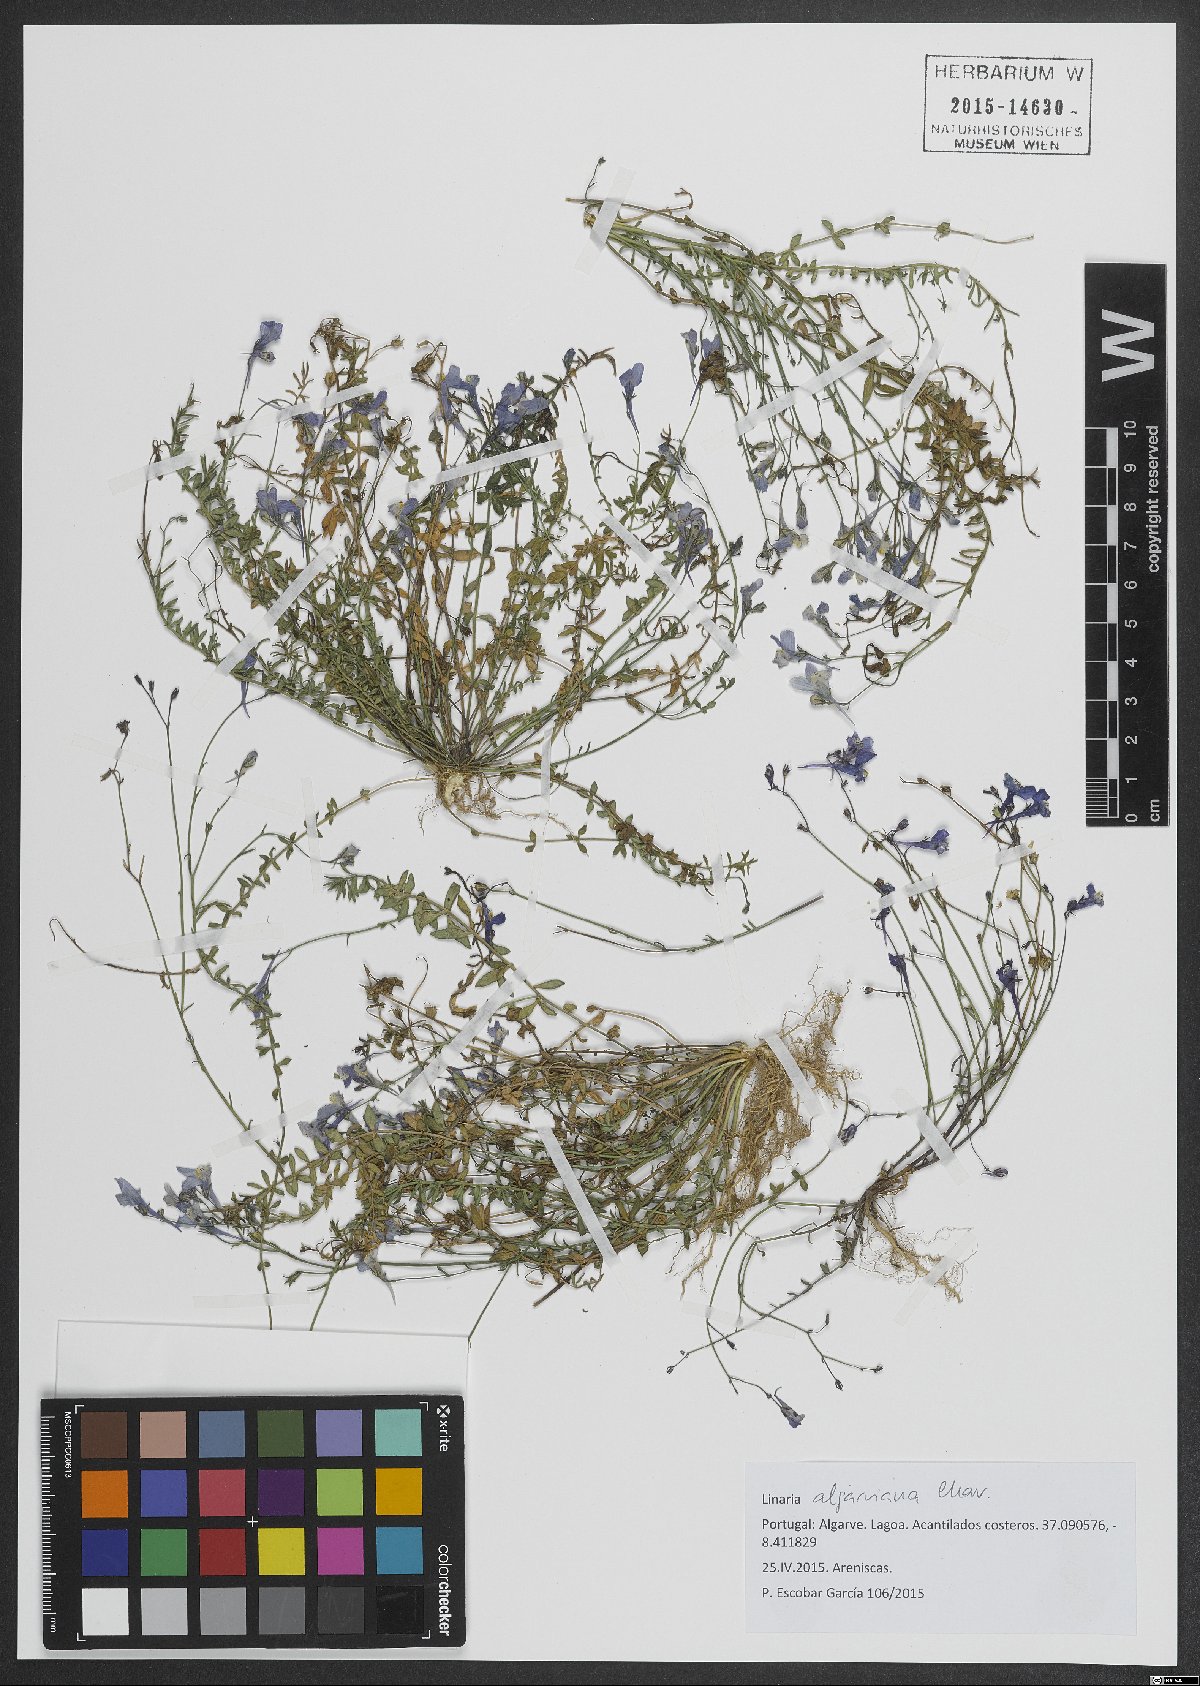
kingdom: Plantae
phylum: Tracheophyta
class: Magnoliopsida
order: Lamiales
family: Plantaginaceae
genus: Linaria
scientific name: Linaria algarviana
